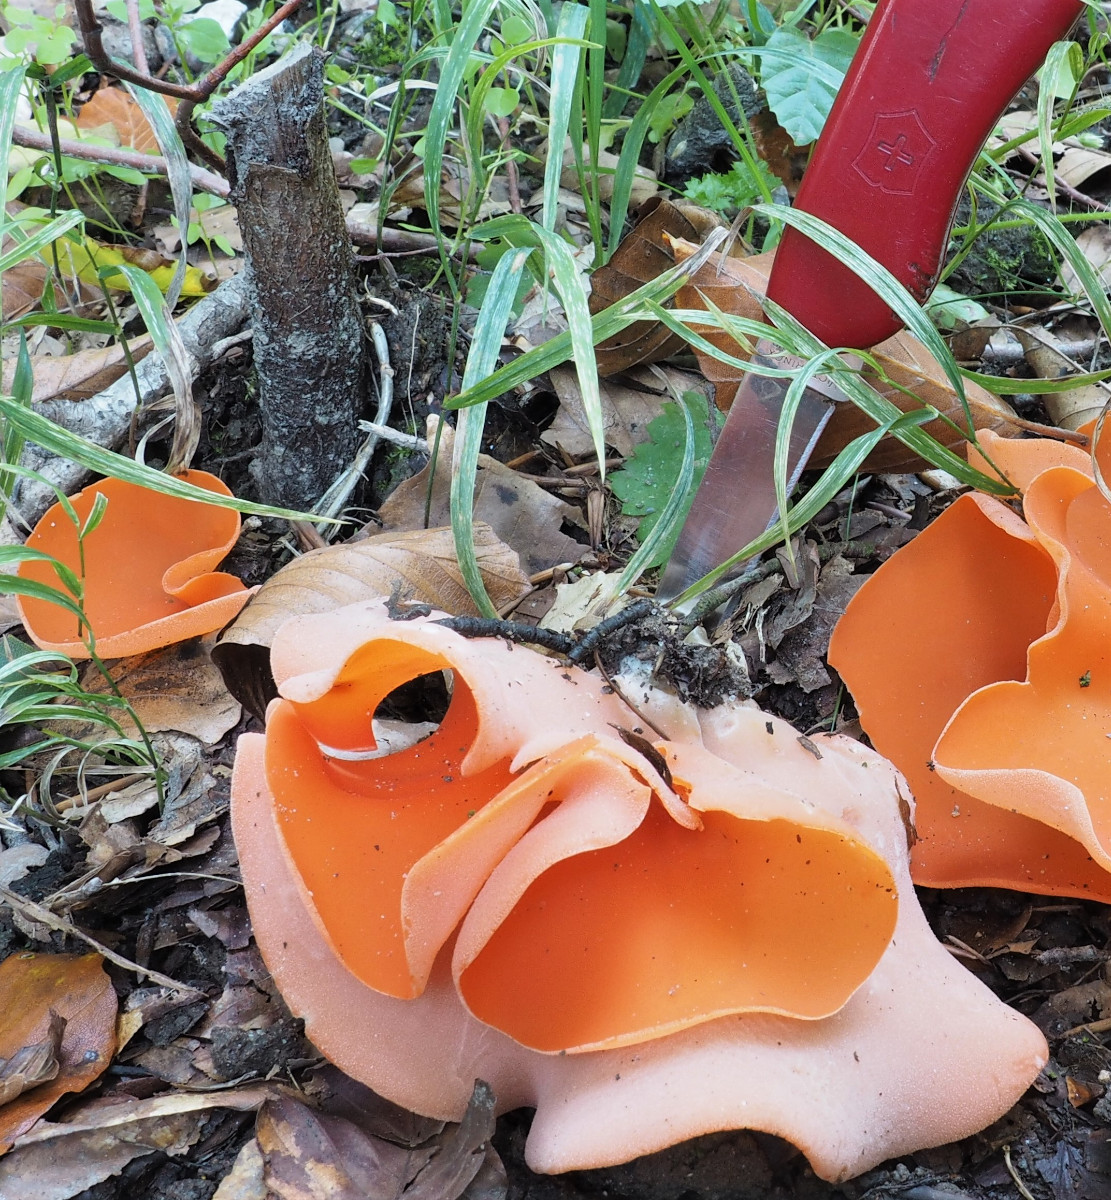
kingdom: Fungi
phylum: Ascomycota
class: Pezizomycetes
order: Pezizales
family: Pyronemataceae
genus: Aleuria
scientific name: Aleuria aurantia
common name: almindelig orangebæger
